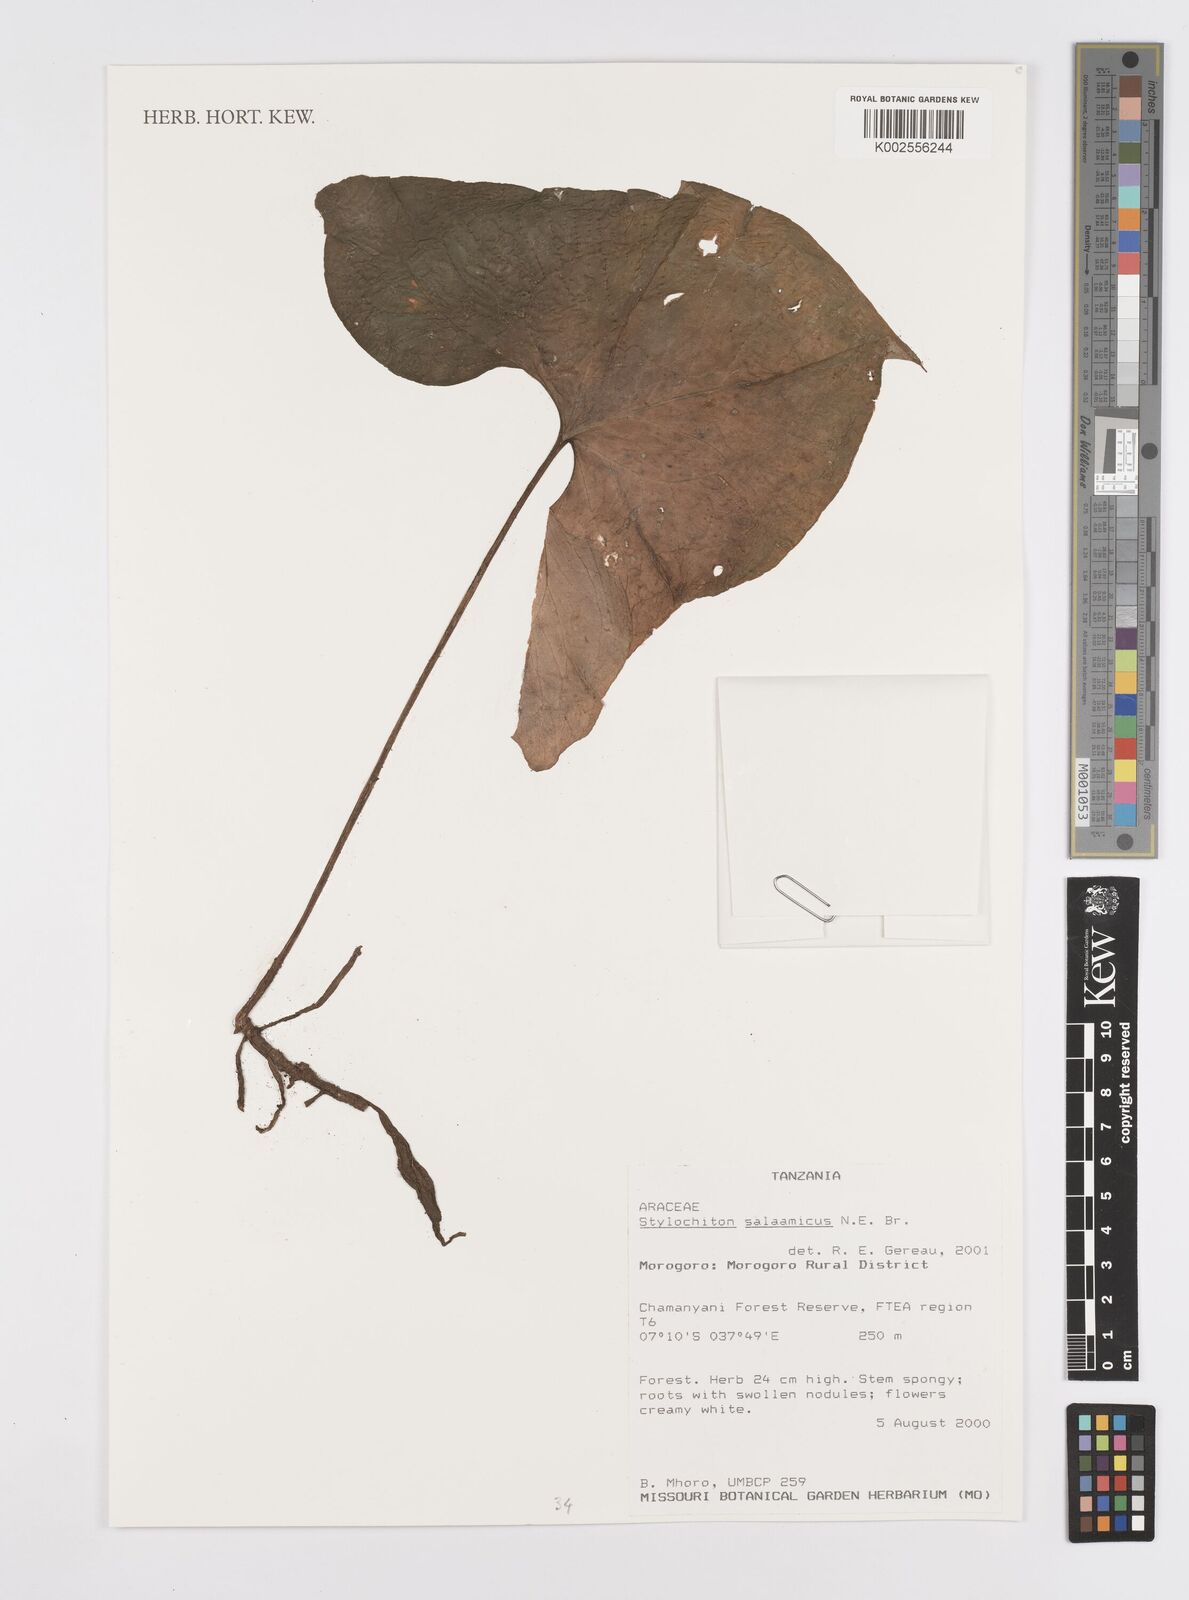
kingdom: Plantae
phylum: Tracheophyta
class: Liliopsida
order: Alismatales
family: Araceae
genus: Stylochaeton
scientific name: Stylochaeton salaamicum
